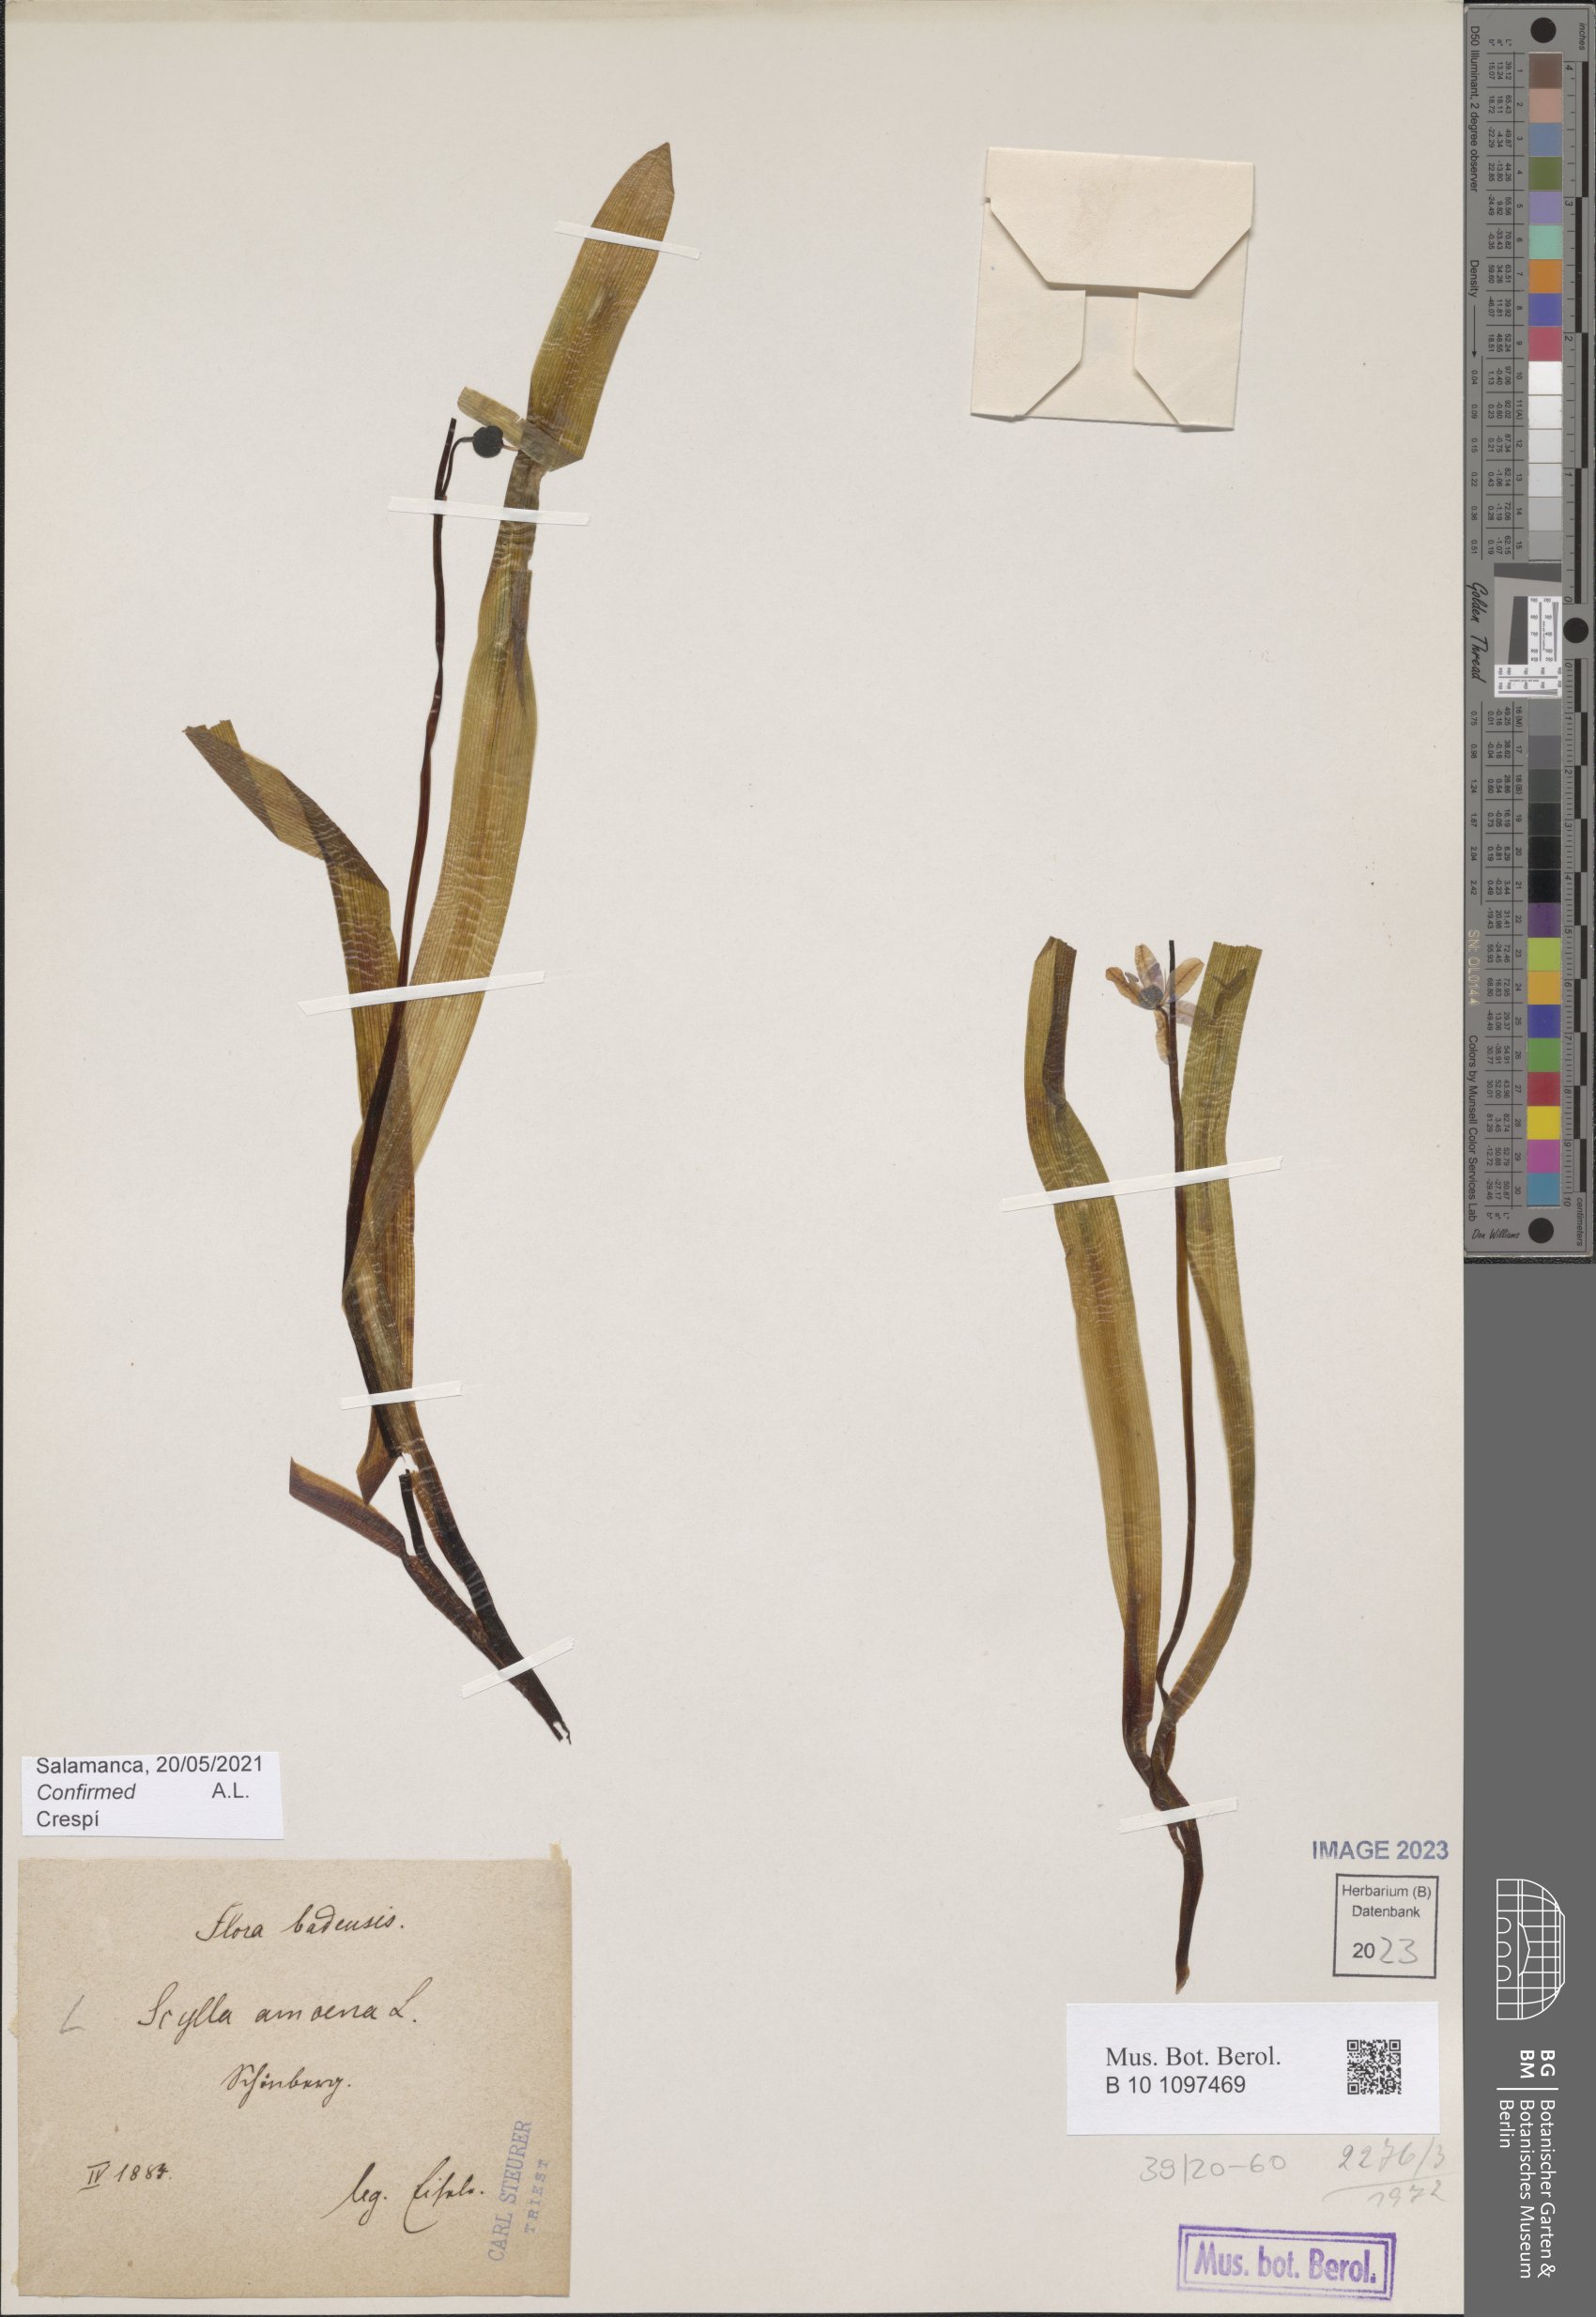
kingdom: Plantae
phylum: Tracheophyta
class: Liliopsida
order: Asparagales
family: Asparagaceae
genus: Scilla
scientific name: Scilla amoena
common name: Star-hyacinth
